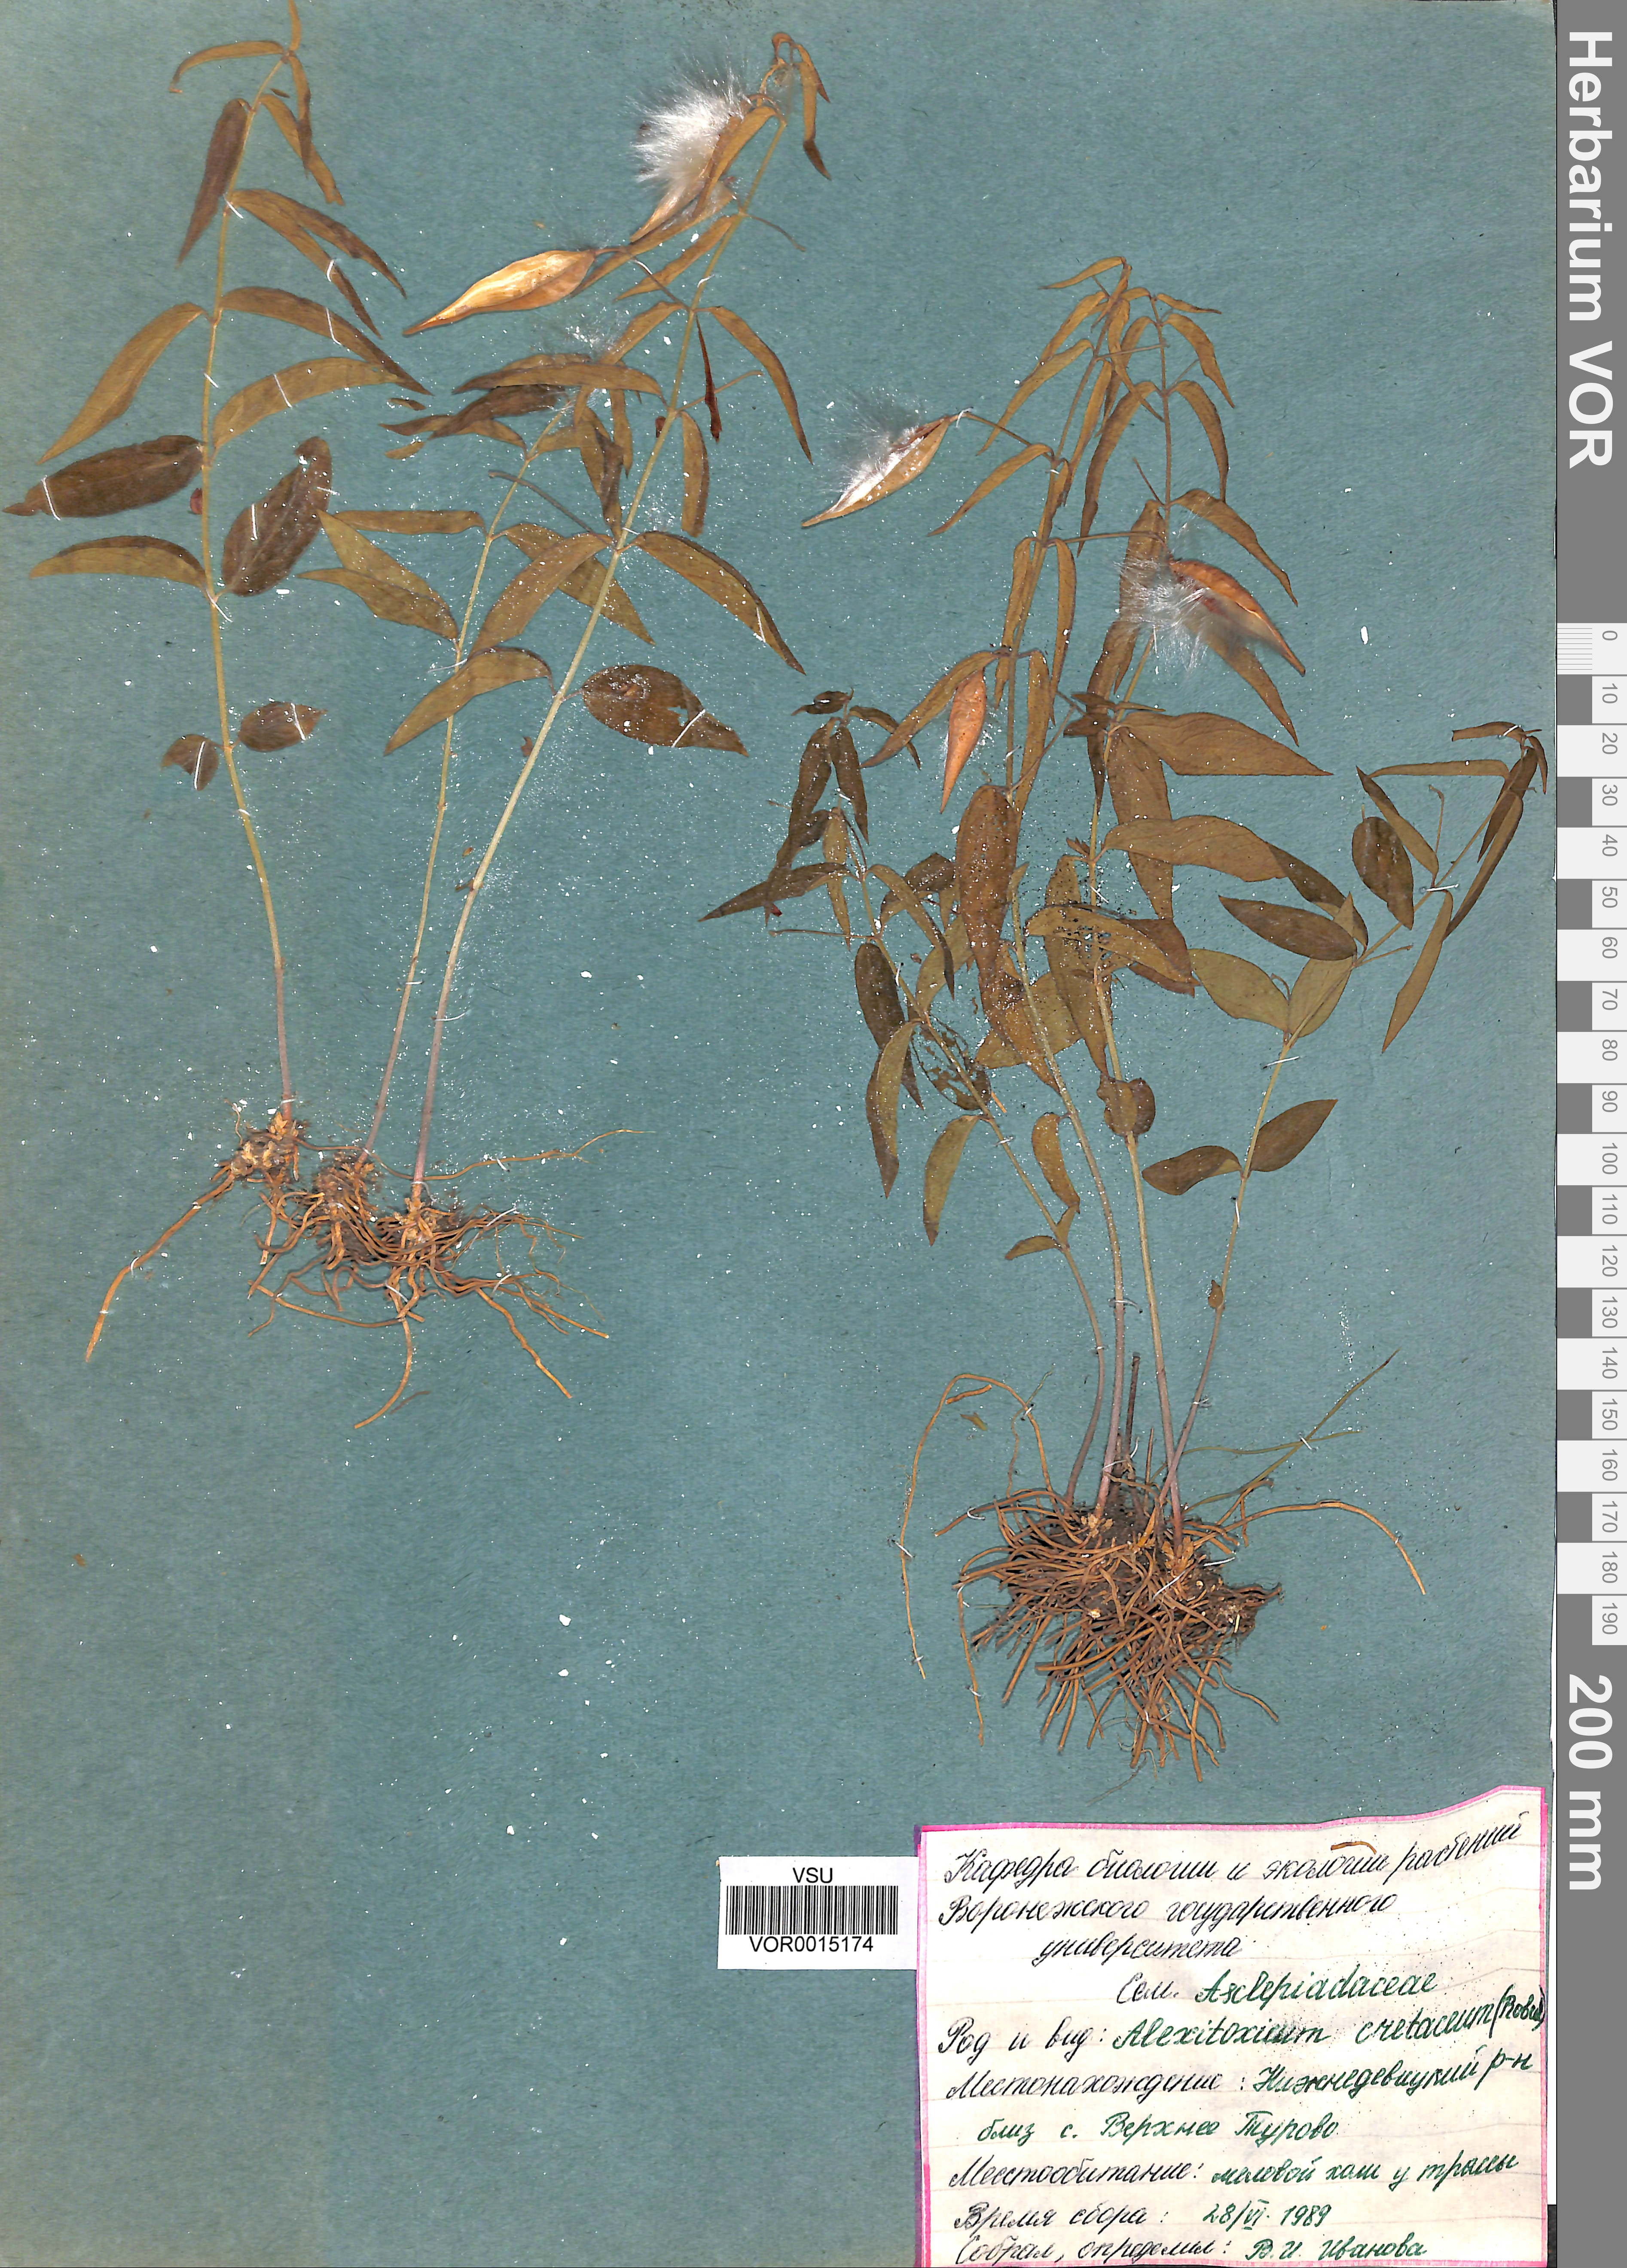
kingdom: Plantae
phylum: Tracheophyta
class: Magnoliopsida
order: Gentianales
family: Apocynaceae
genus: Vincetoxicum
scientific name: Vincetoxicum hirundinaria
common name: White swallowwort
